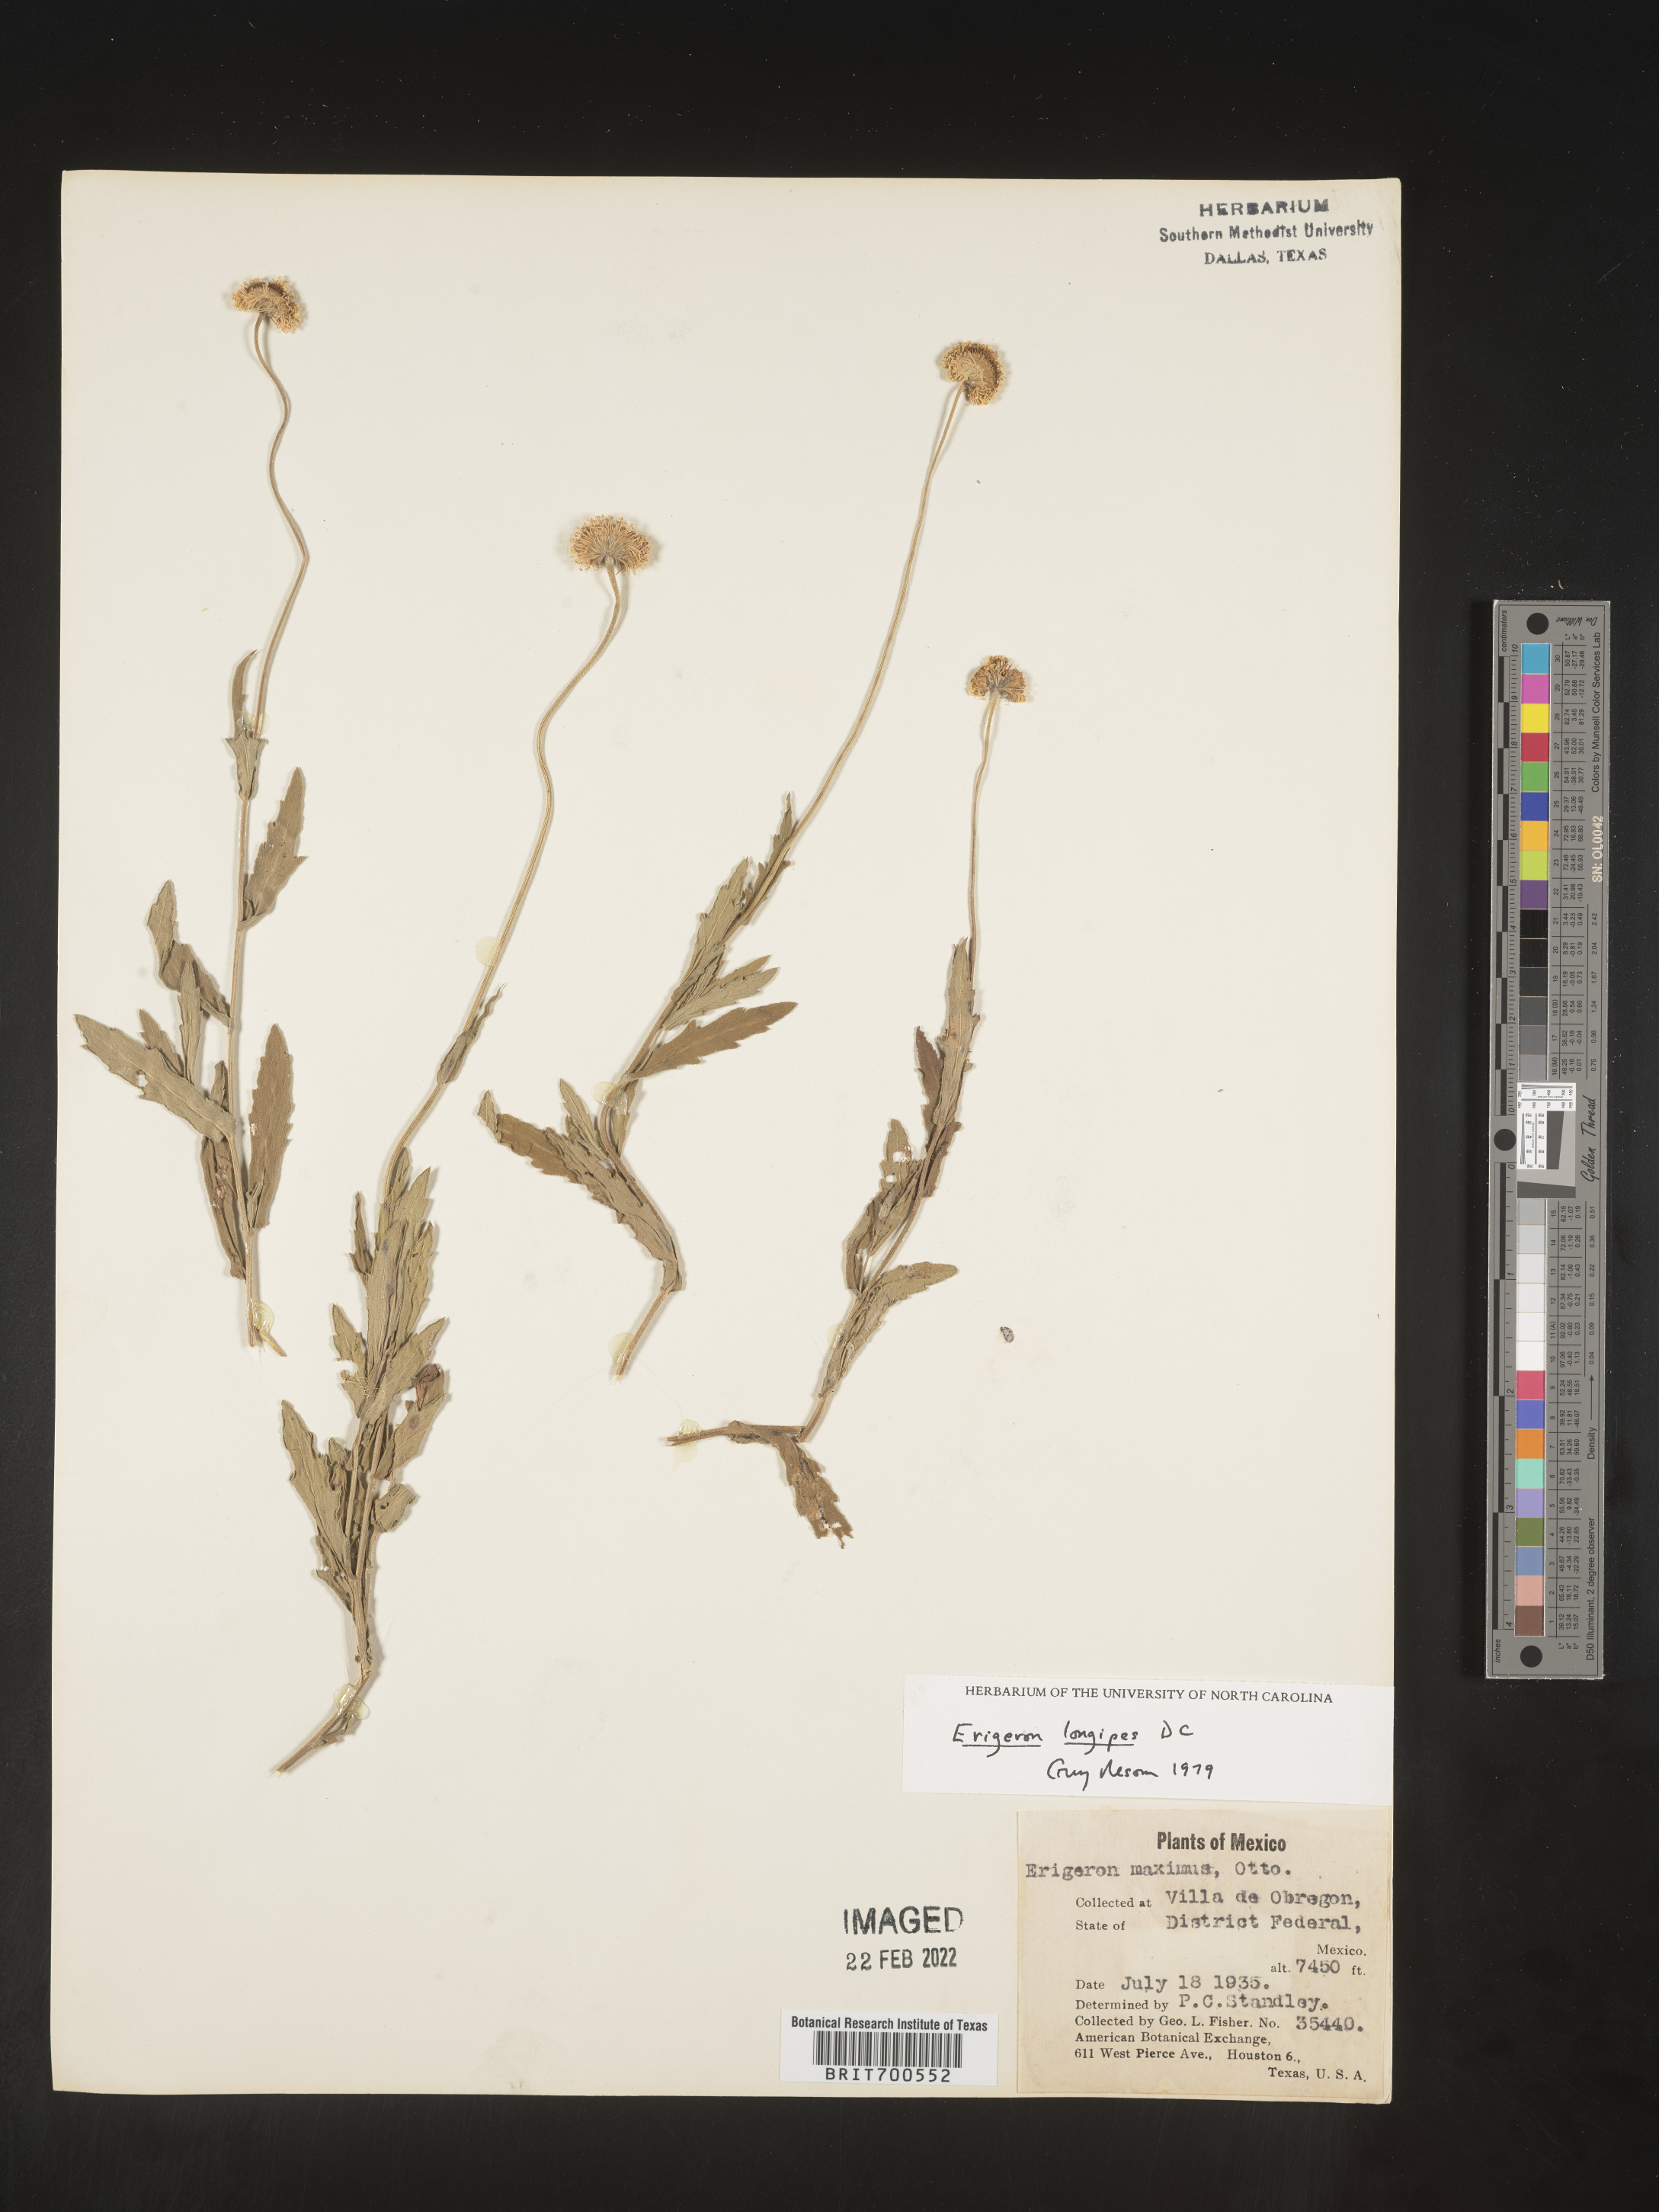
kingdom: Plantae
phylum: Tracheophyta
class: Magnoliopsida
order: Asterales
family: Asteraceae
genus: Erigeron
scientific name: Erigeron longipes
